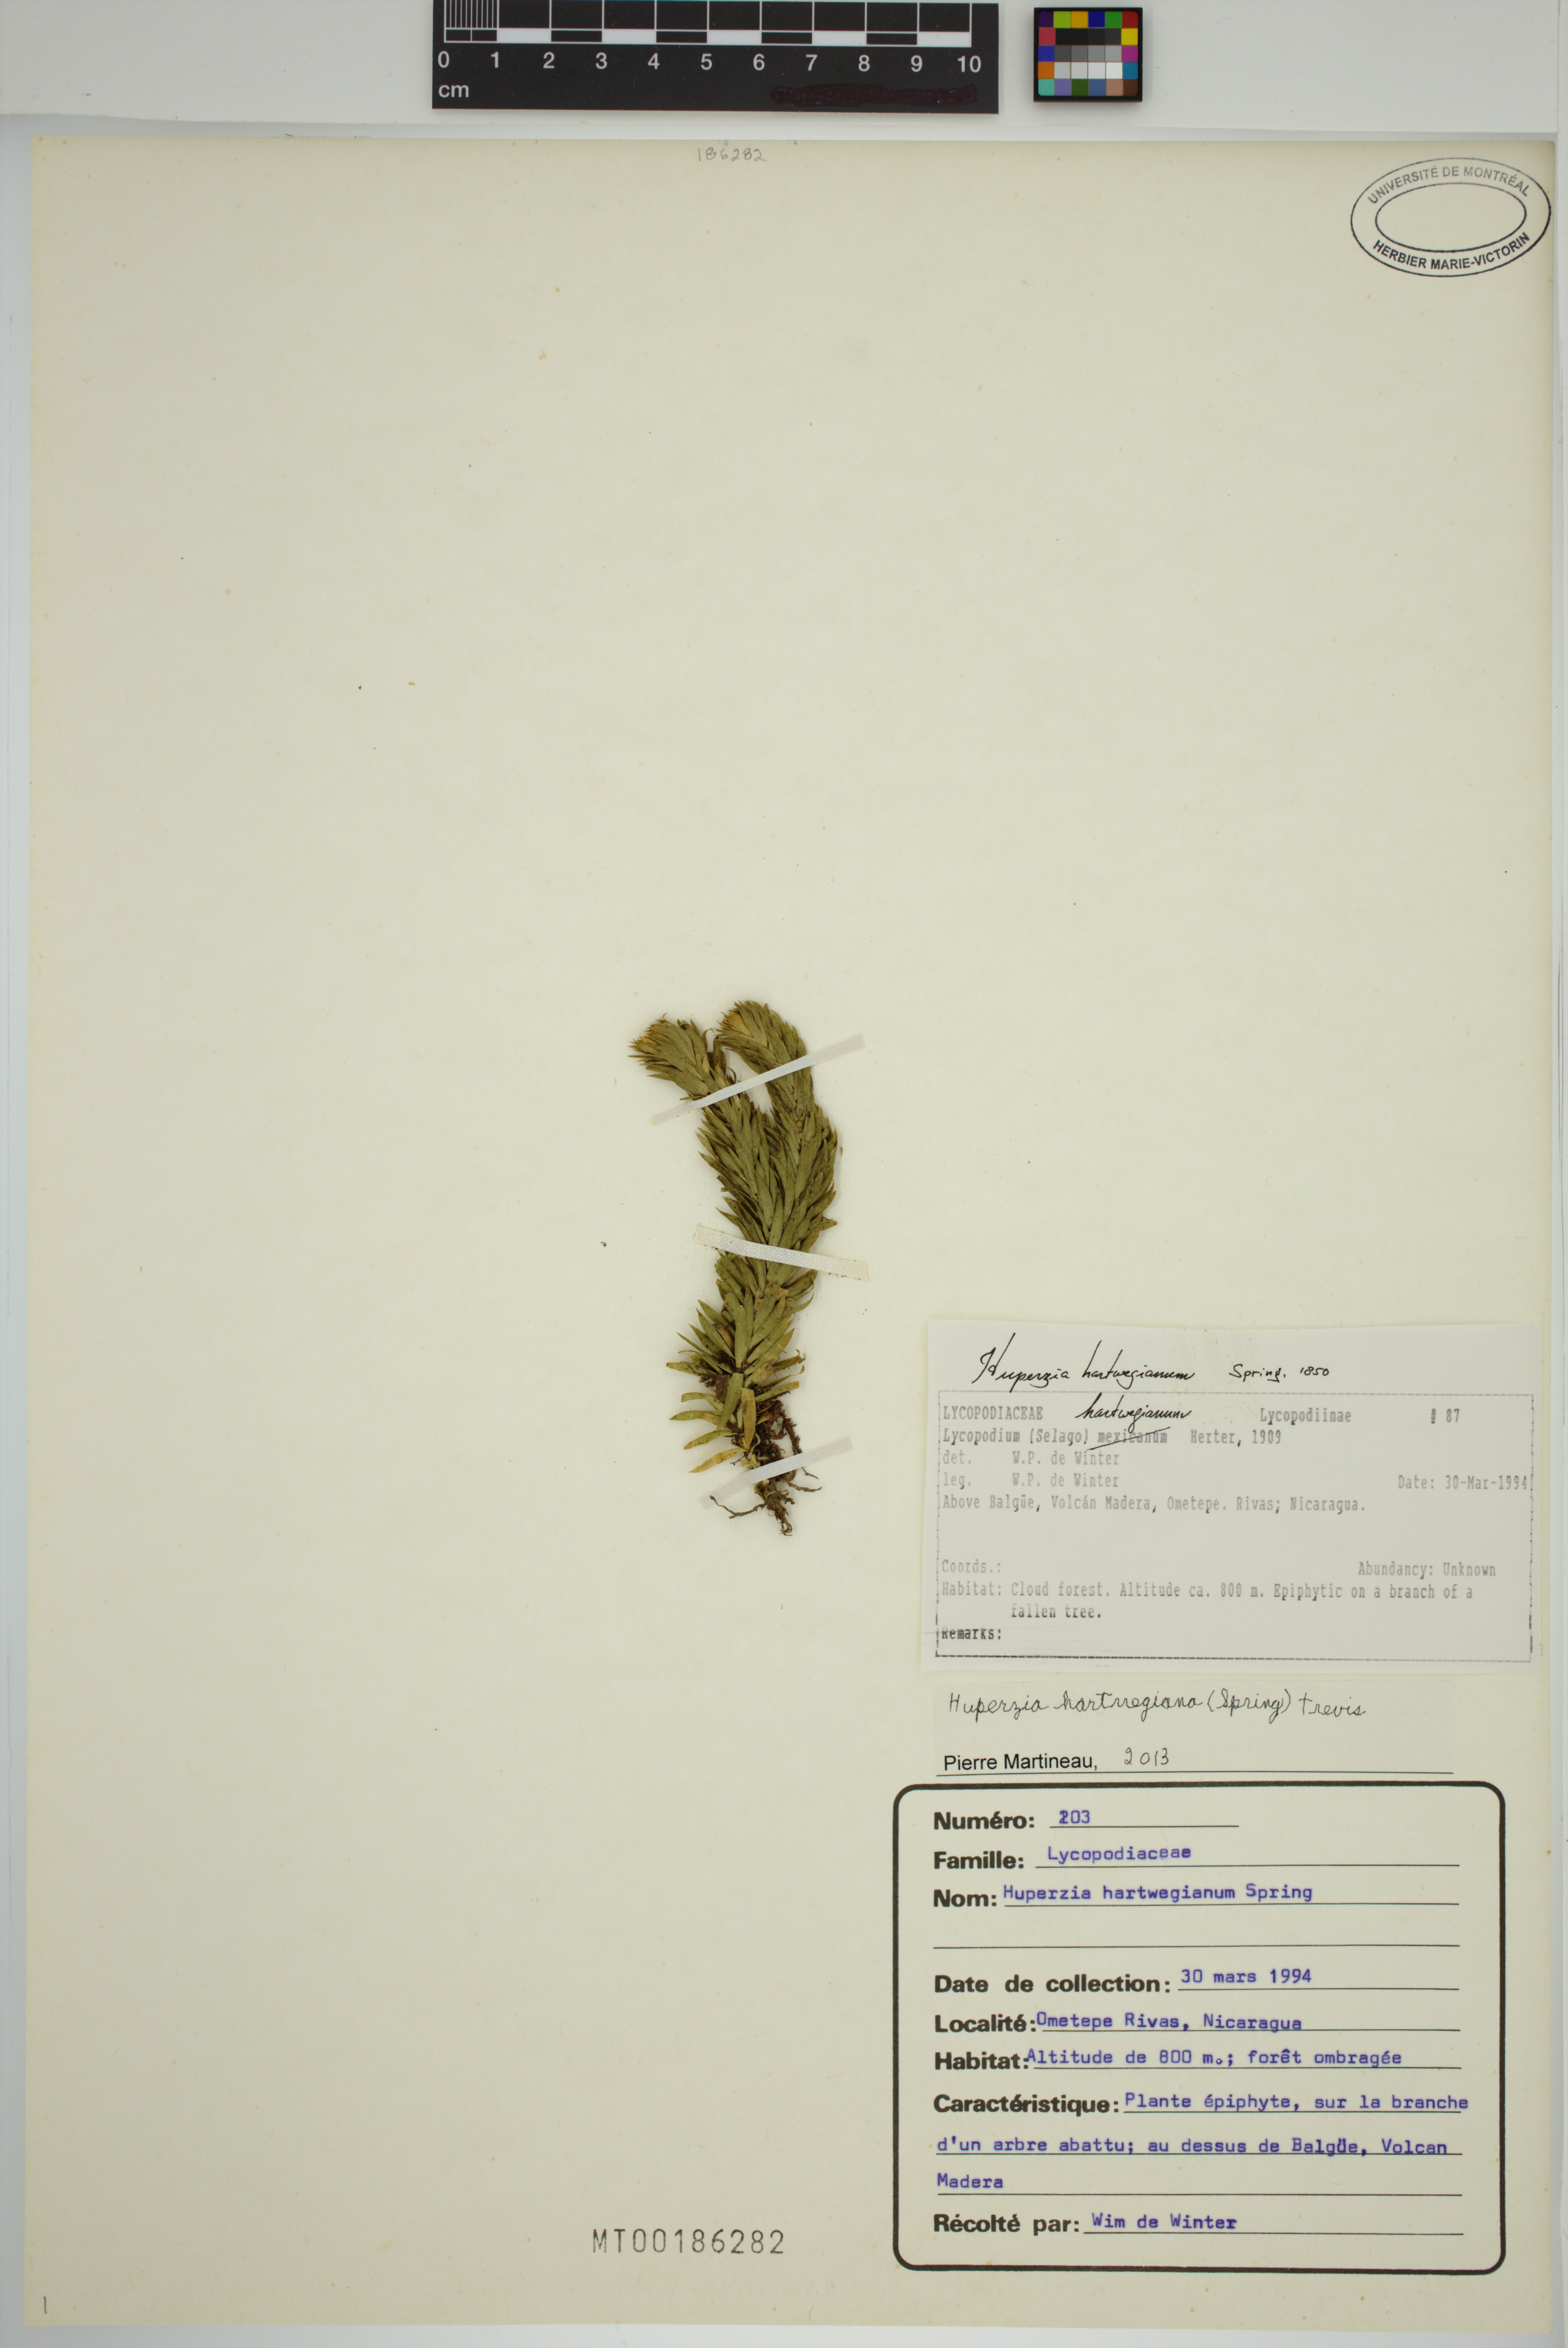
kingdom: Plantae
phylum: Tracheophyta
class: Lycopodiopsida
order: Lycopodiales
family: Lycopodiaceae
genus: Phlegmariurus
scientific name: Phlegmariurus hartwegianus
